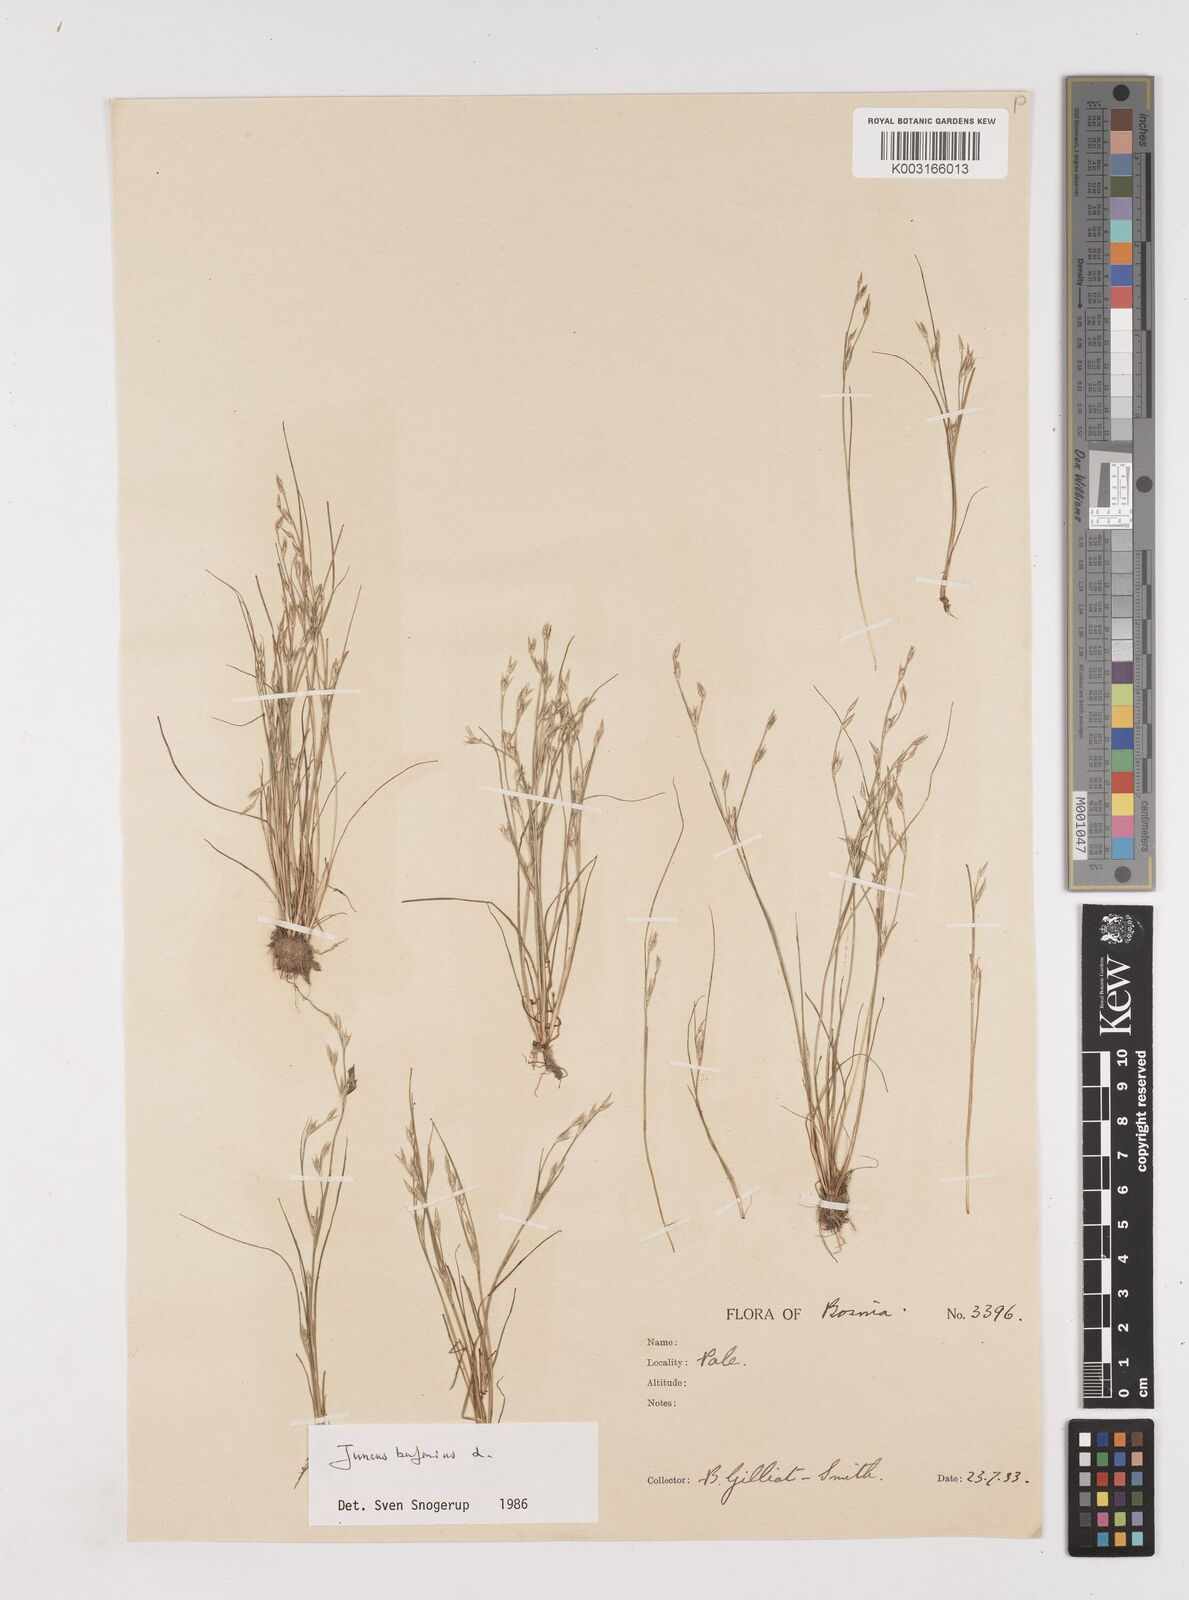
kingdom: Plantae
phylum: Tracheophyta
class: Liliopsida
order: Poales
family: Juncaceae
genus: Juncus
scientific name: Juncus bufonius
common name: Toad rush
